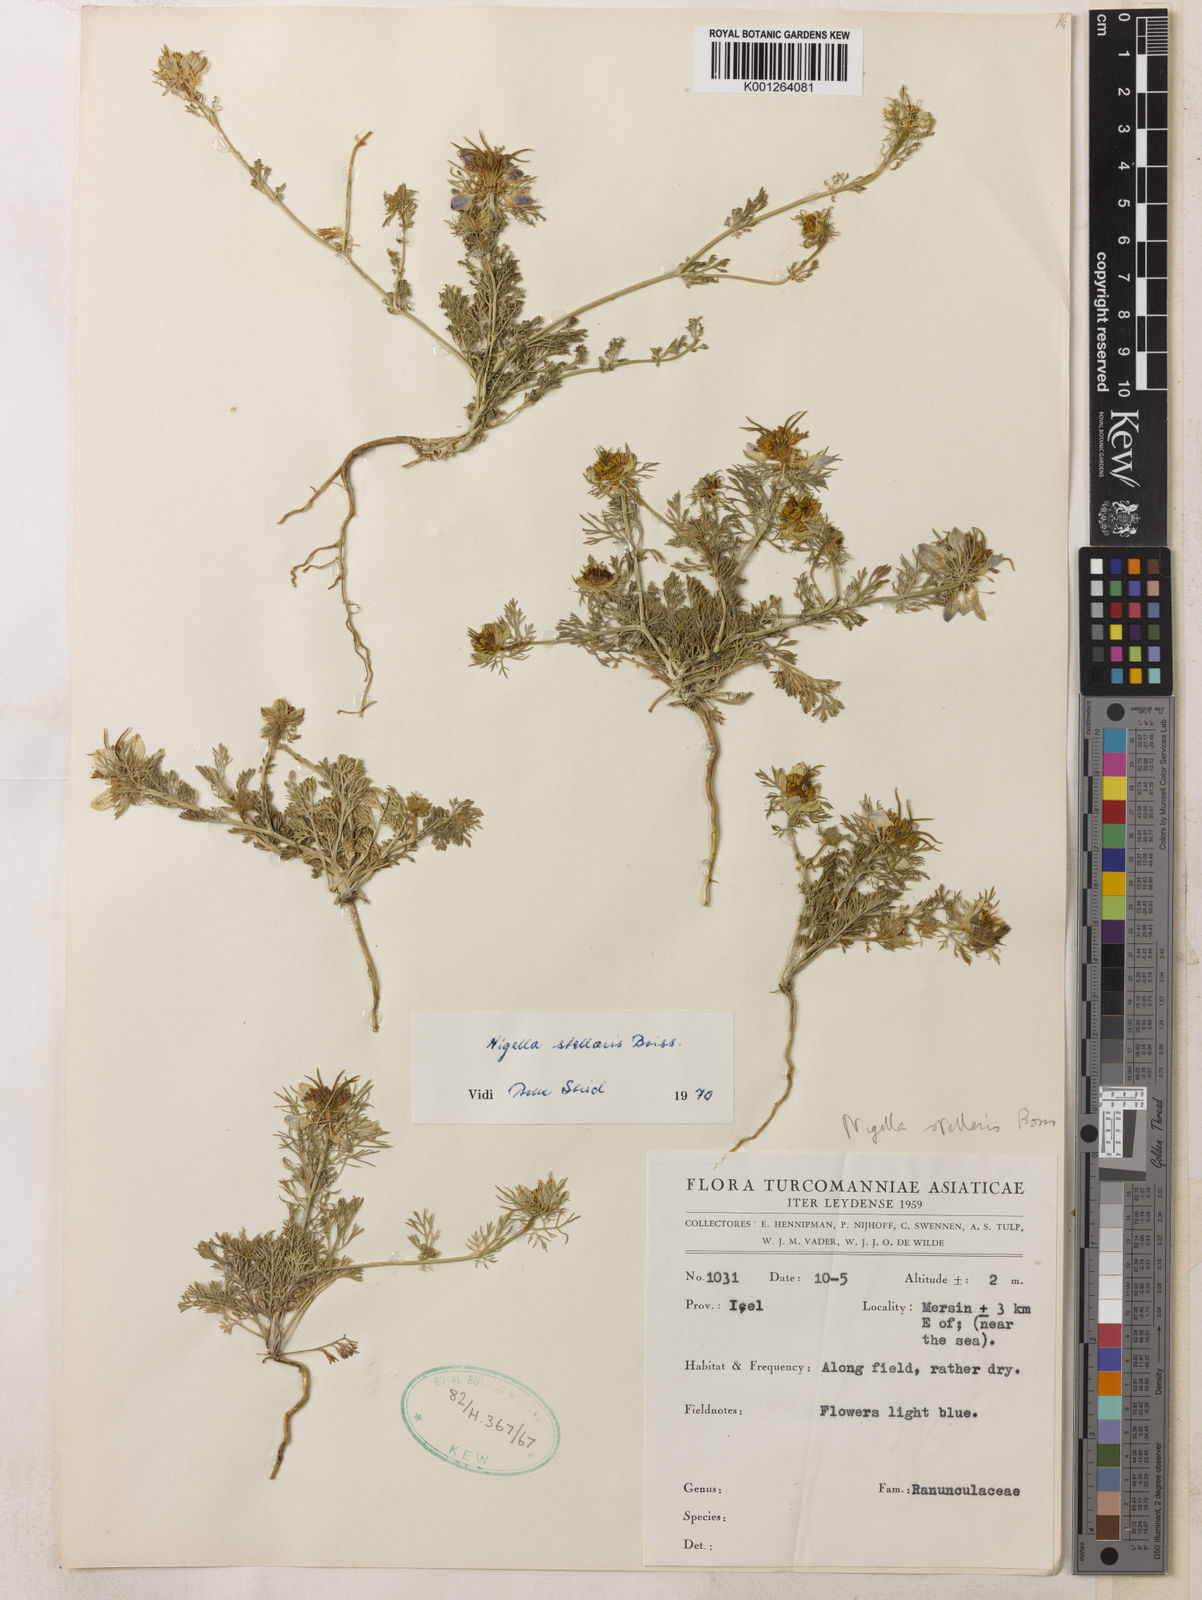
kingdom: Plantae
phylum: Tracheophyta
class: Magnoliopsida
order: Ranunculales
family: Ranunculaceae
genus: Nigella
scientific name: Nigella stellaris
